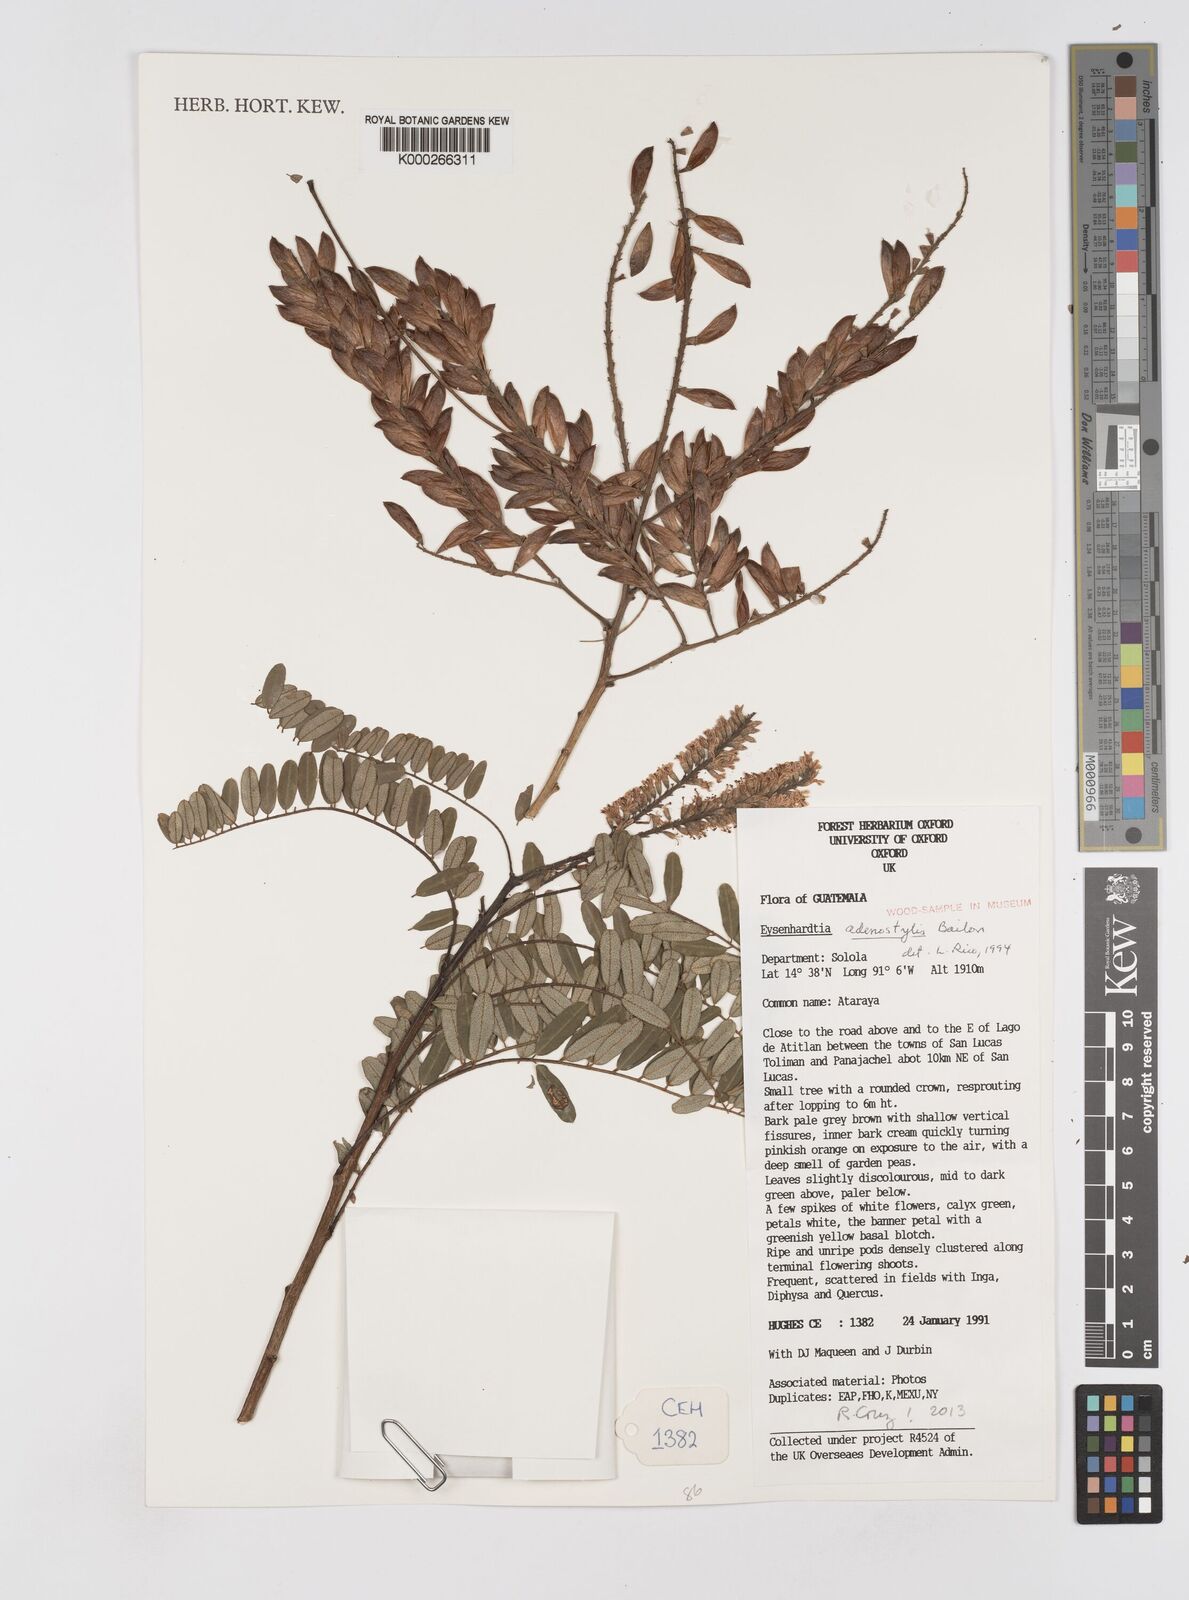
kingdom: Plantae
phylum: Tracheophyta
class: Magnoliopsida
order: Fabales
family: Fabaceae
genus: Eysenhardtia
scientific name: Eysenhardtia adenostylis
